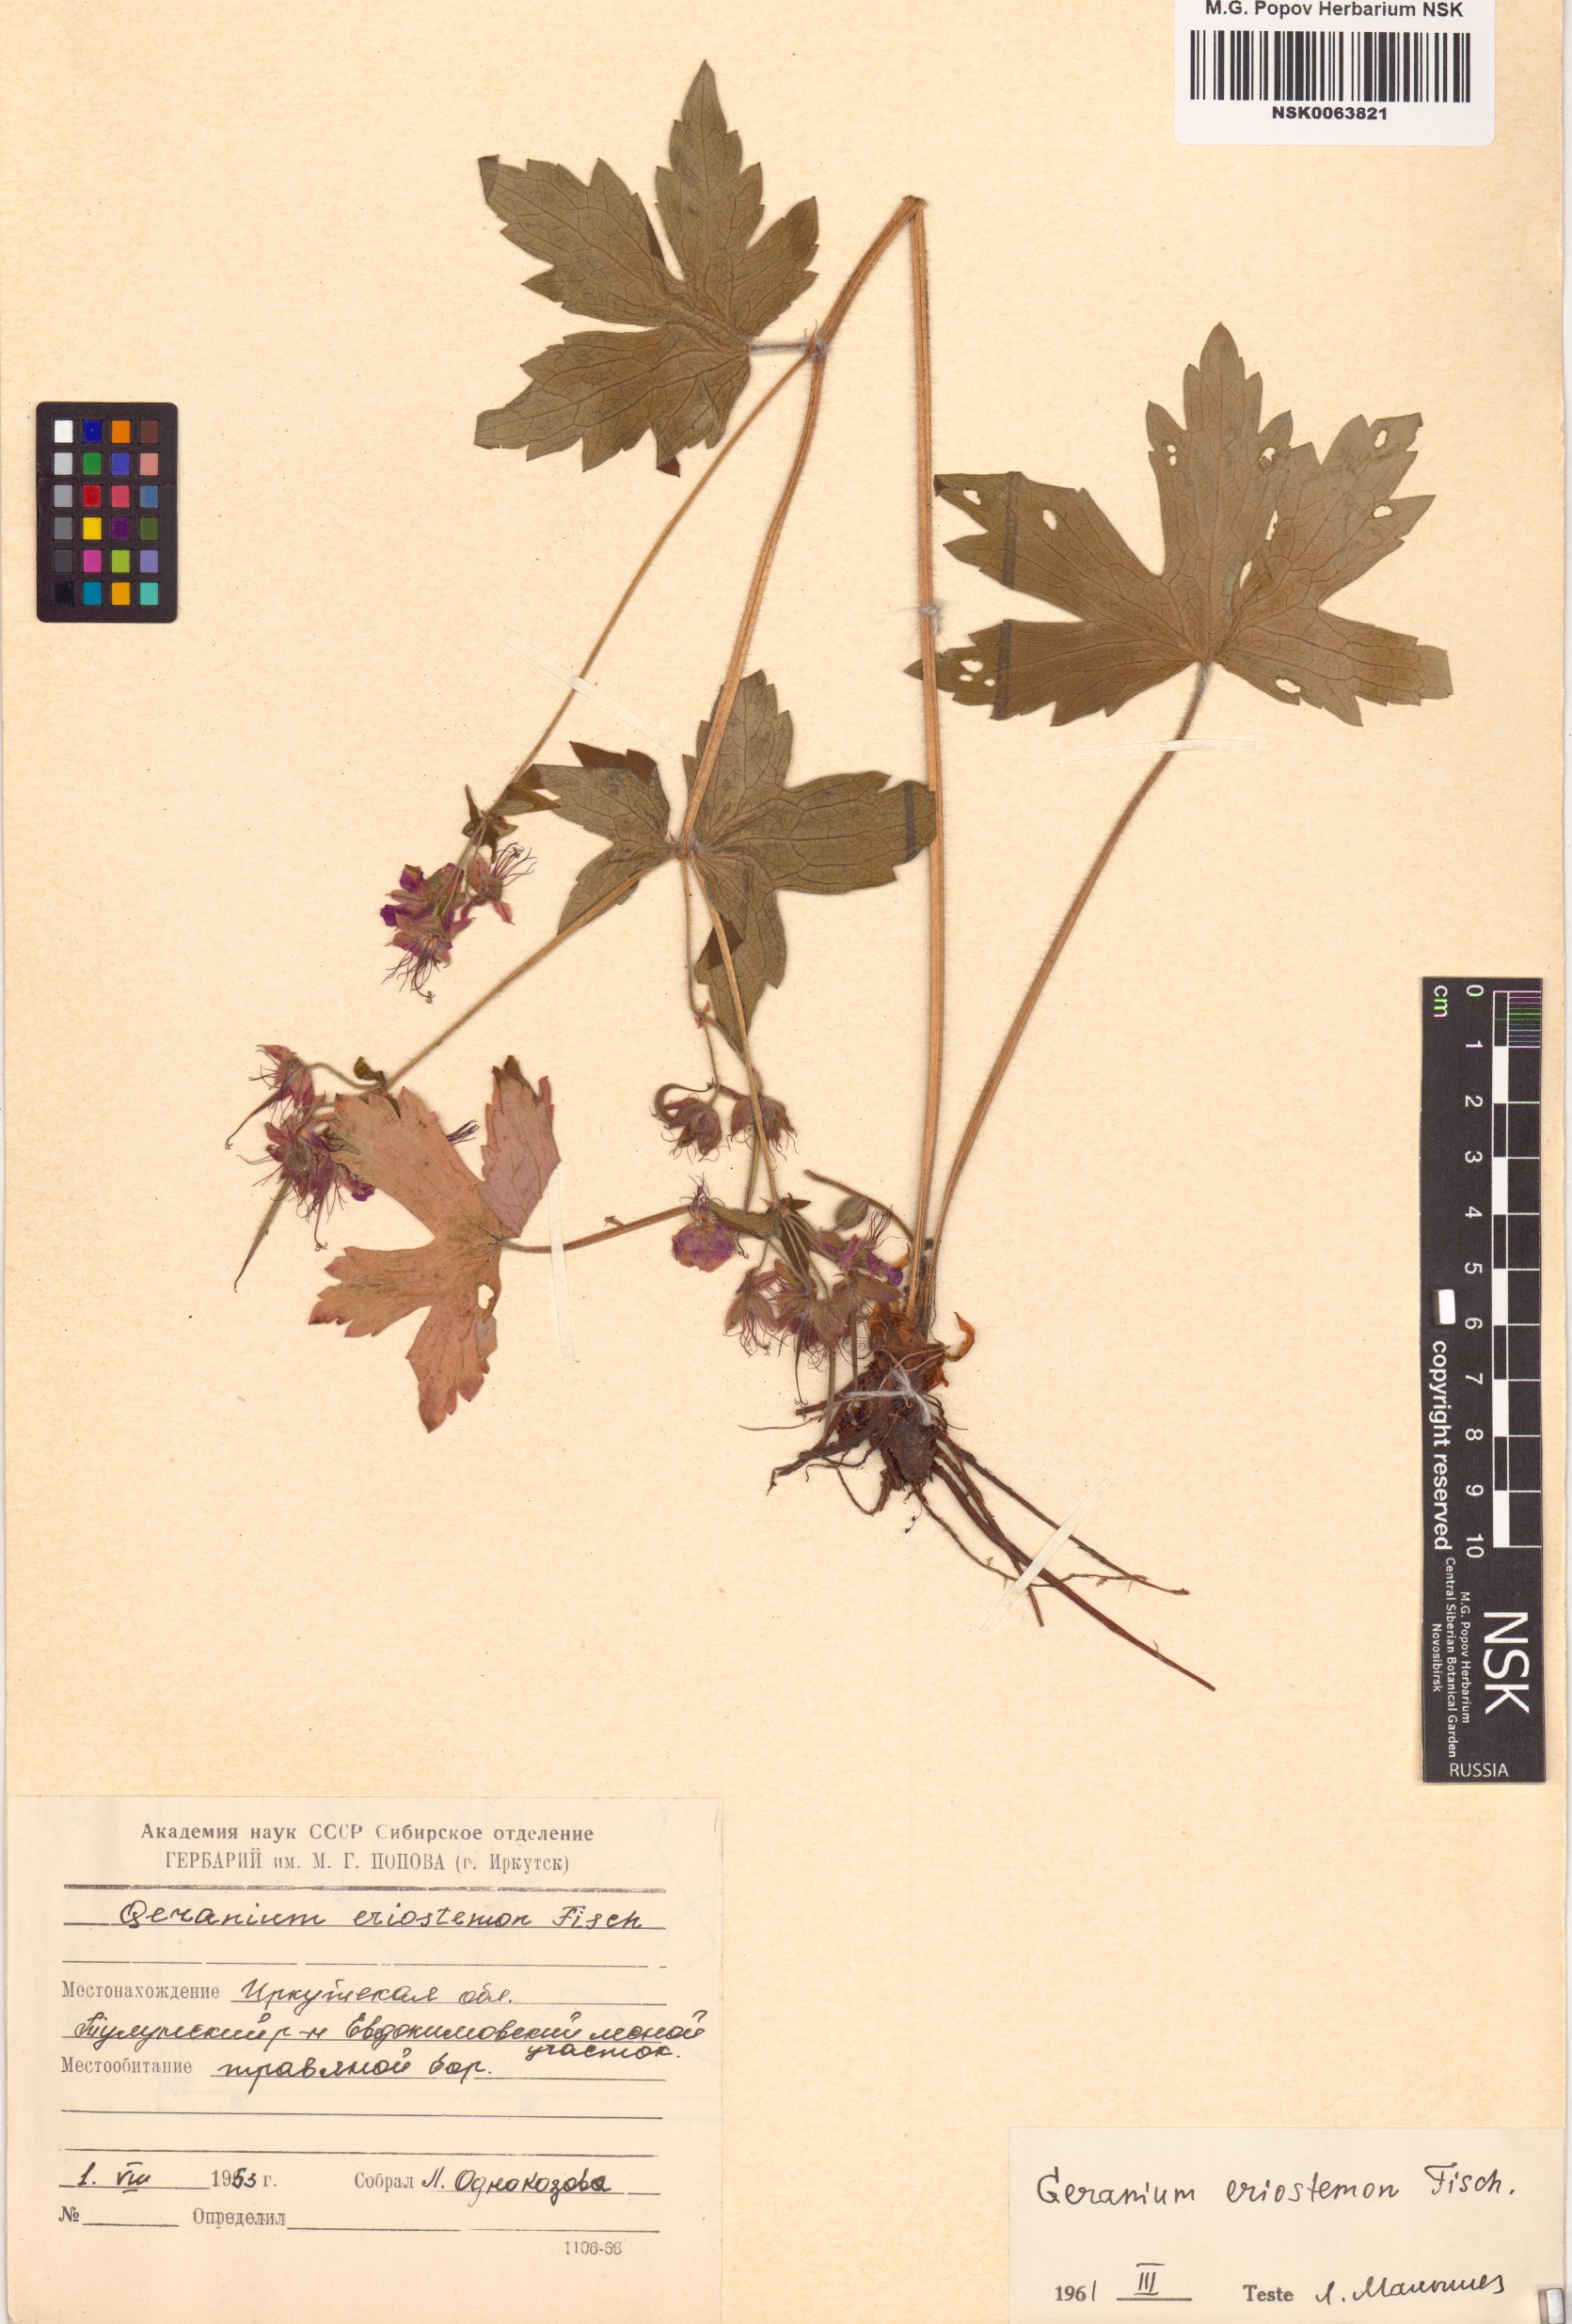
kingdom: Plantae
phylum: Tracheophyta
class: Magnoliopsida
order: Geraniales
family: Geraniaceae
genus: Geranium
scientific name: Geranium platyanthum
